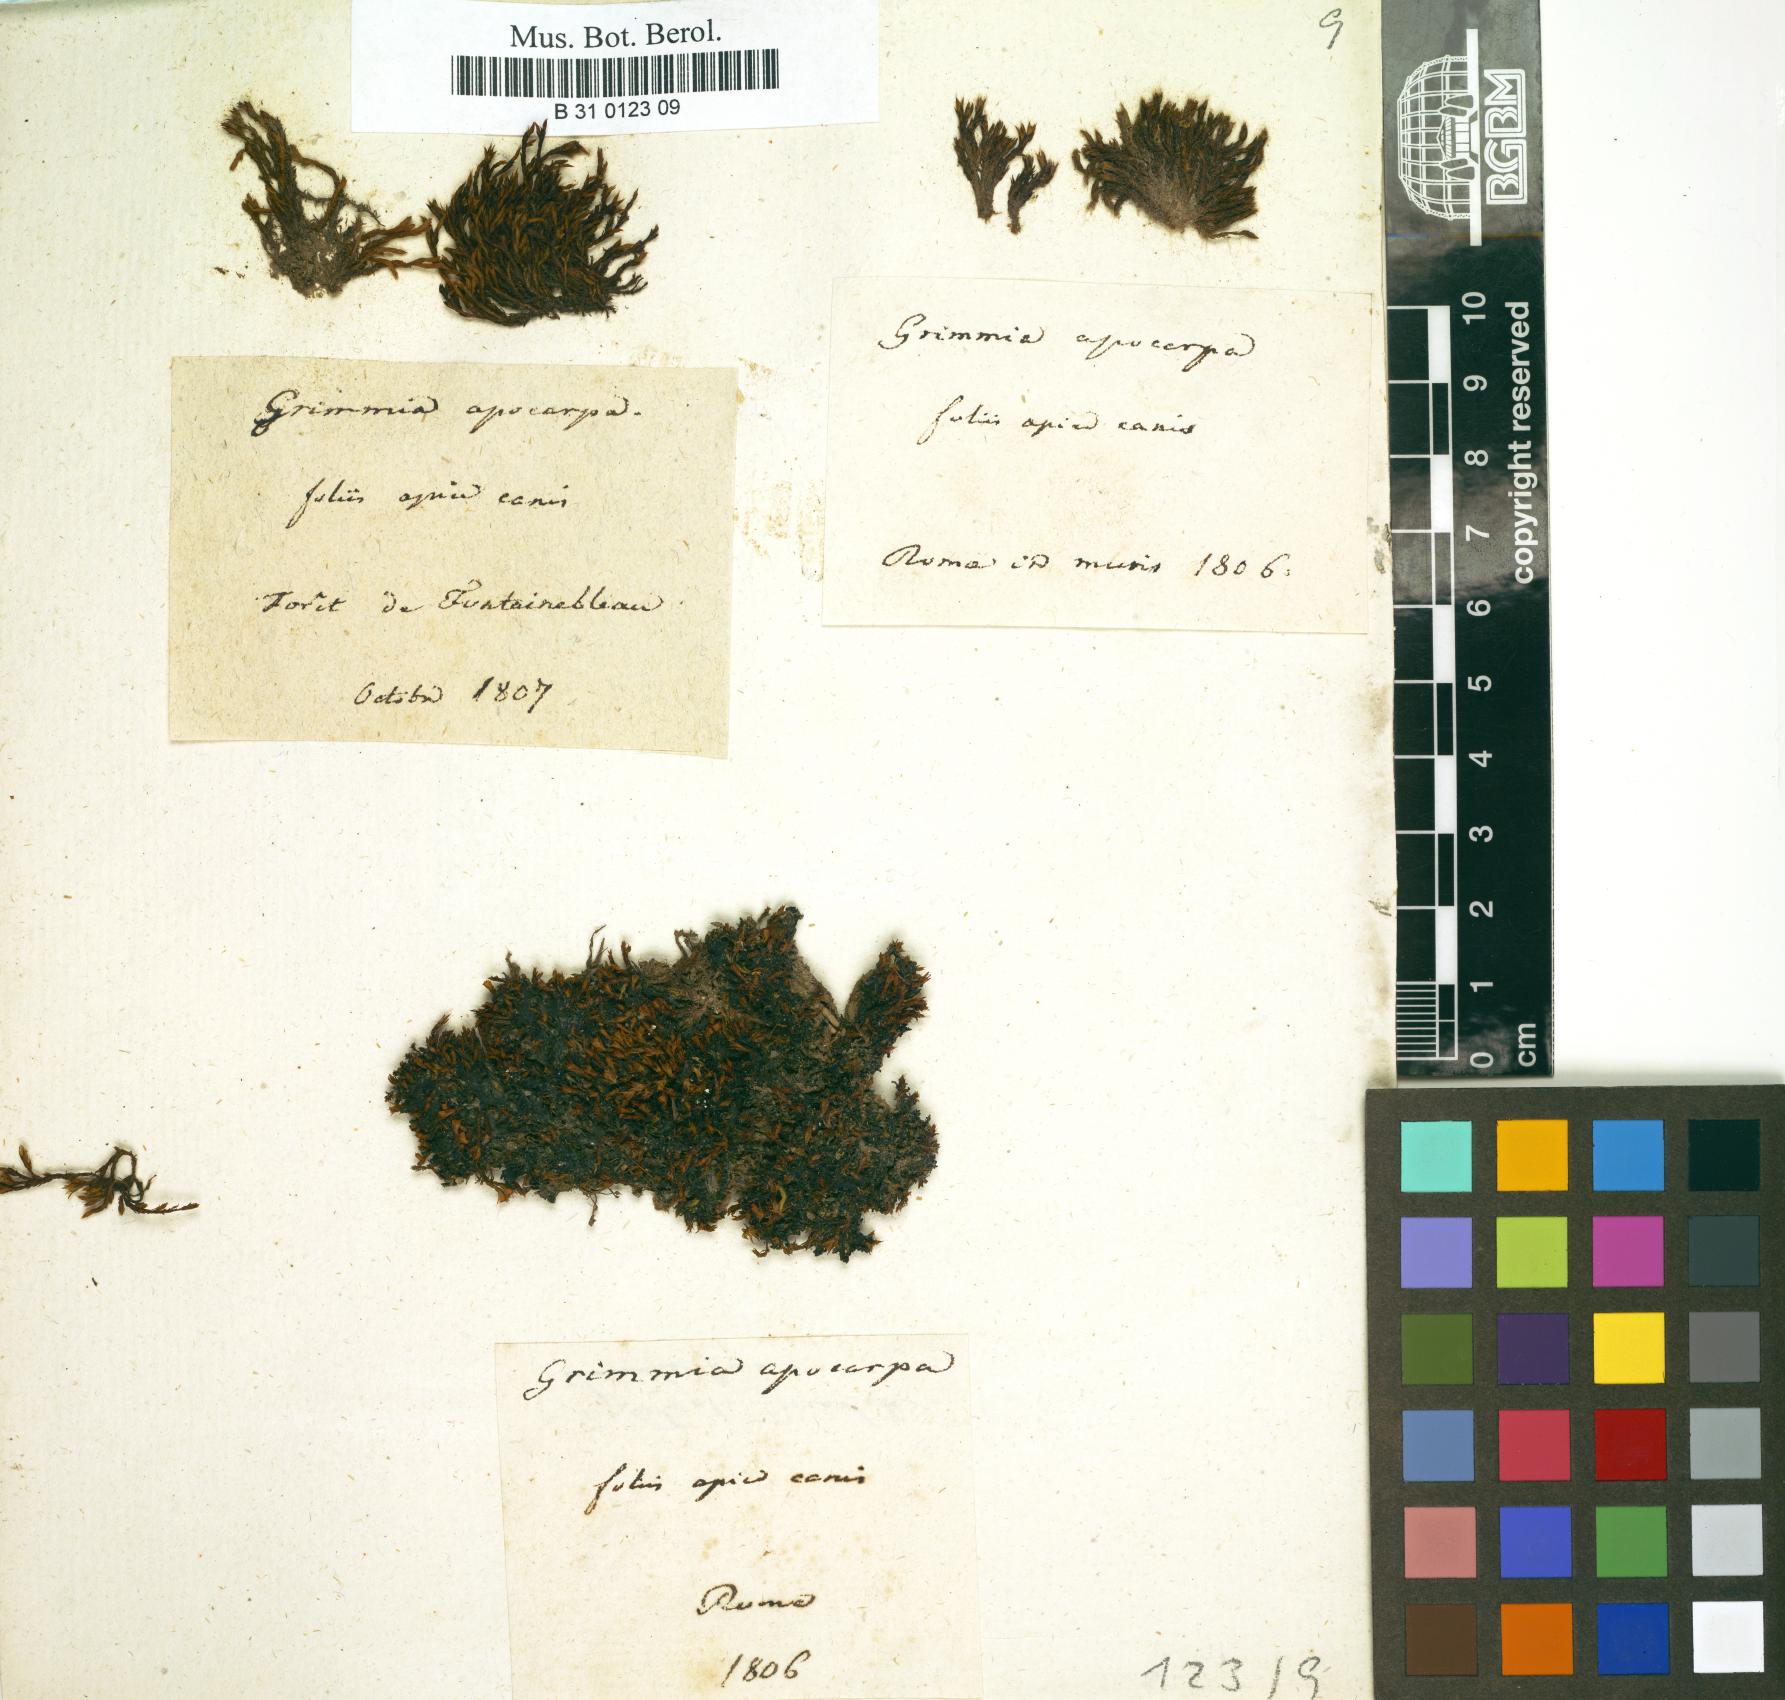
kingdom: Plantae
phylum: Bryophyta
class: Bryopsida
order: Grimmiales
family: Grimmiaceae
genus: Schistidium
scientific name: Schistidium apocarpum
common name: Radiate bloom moss
